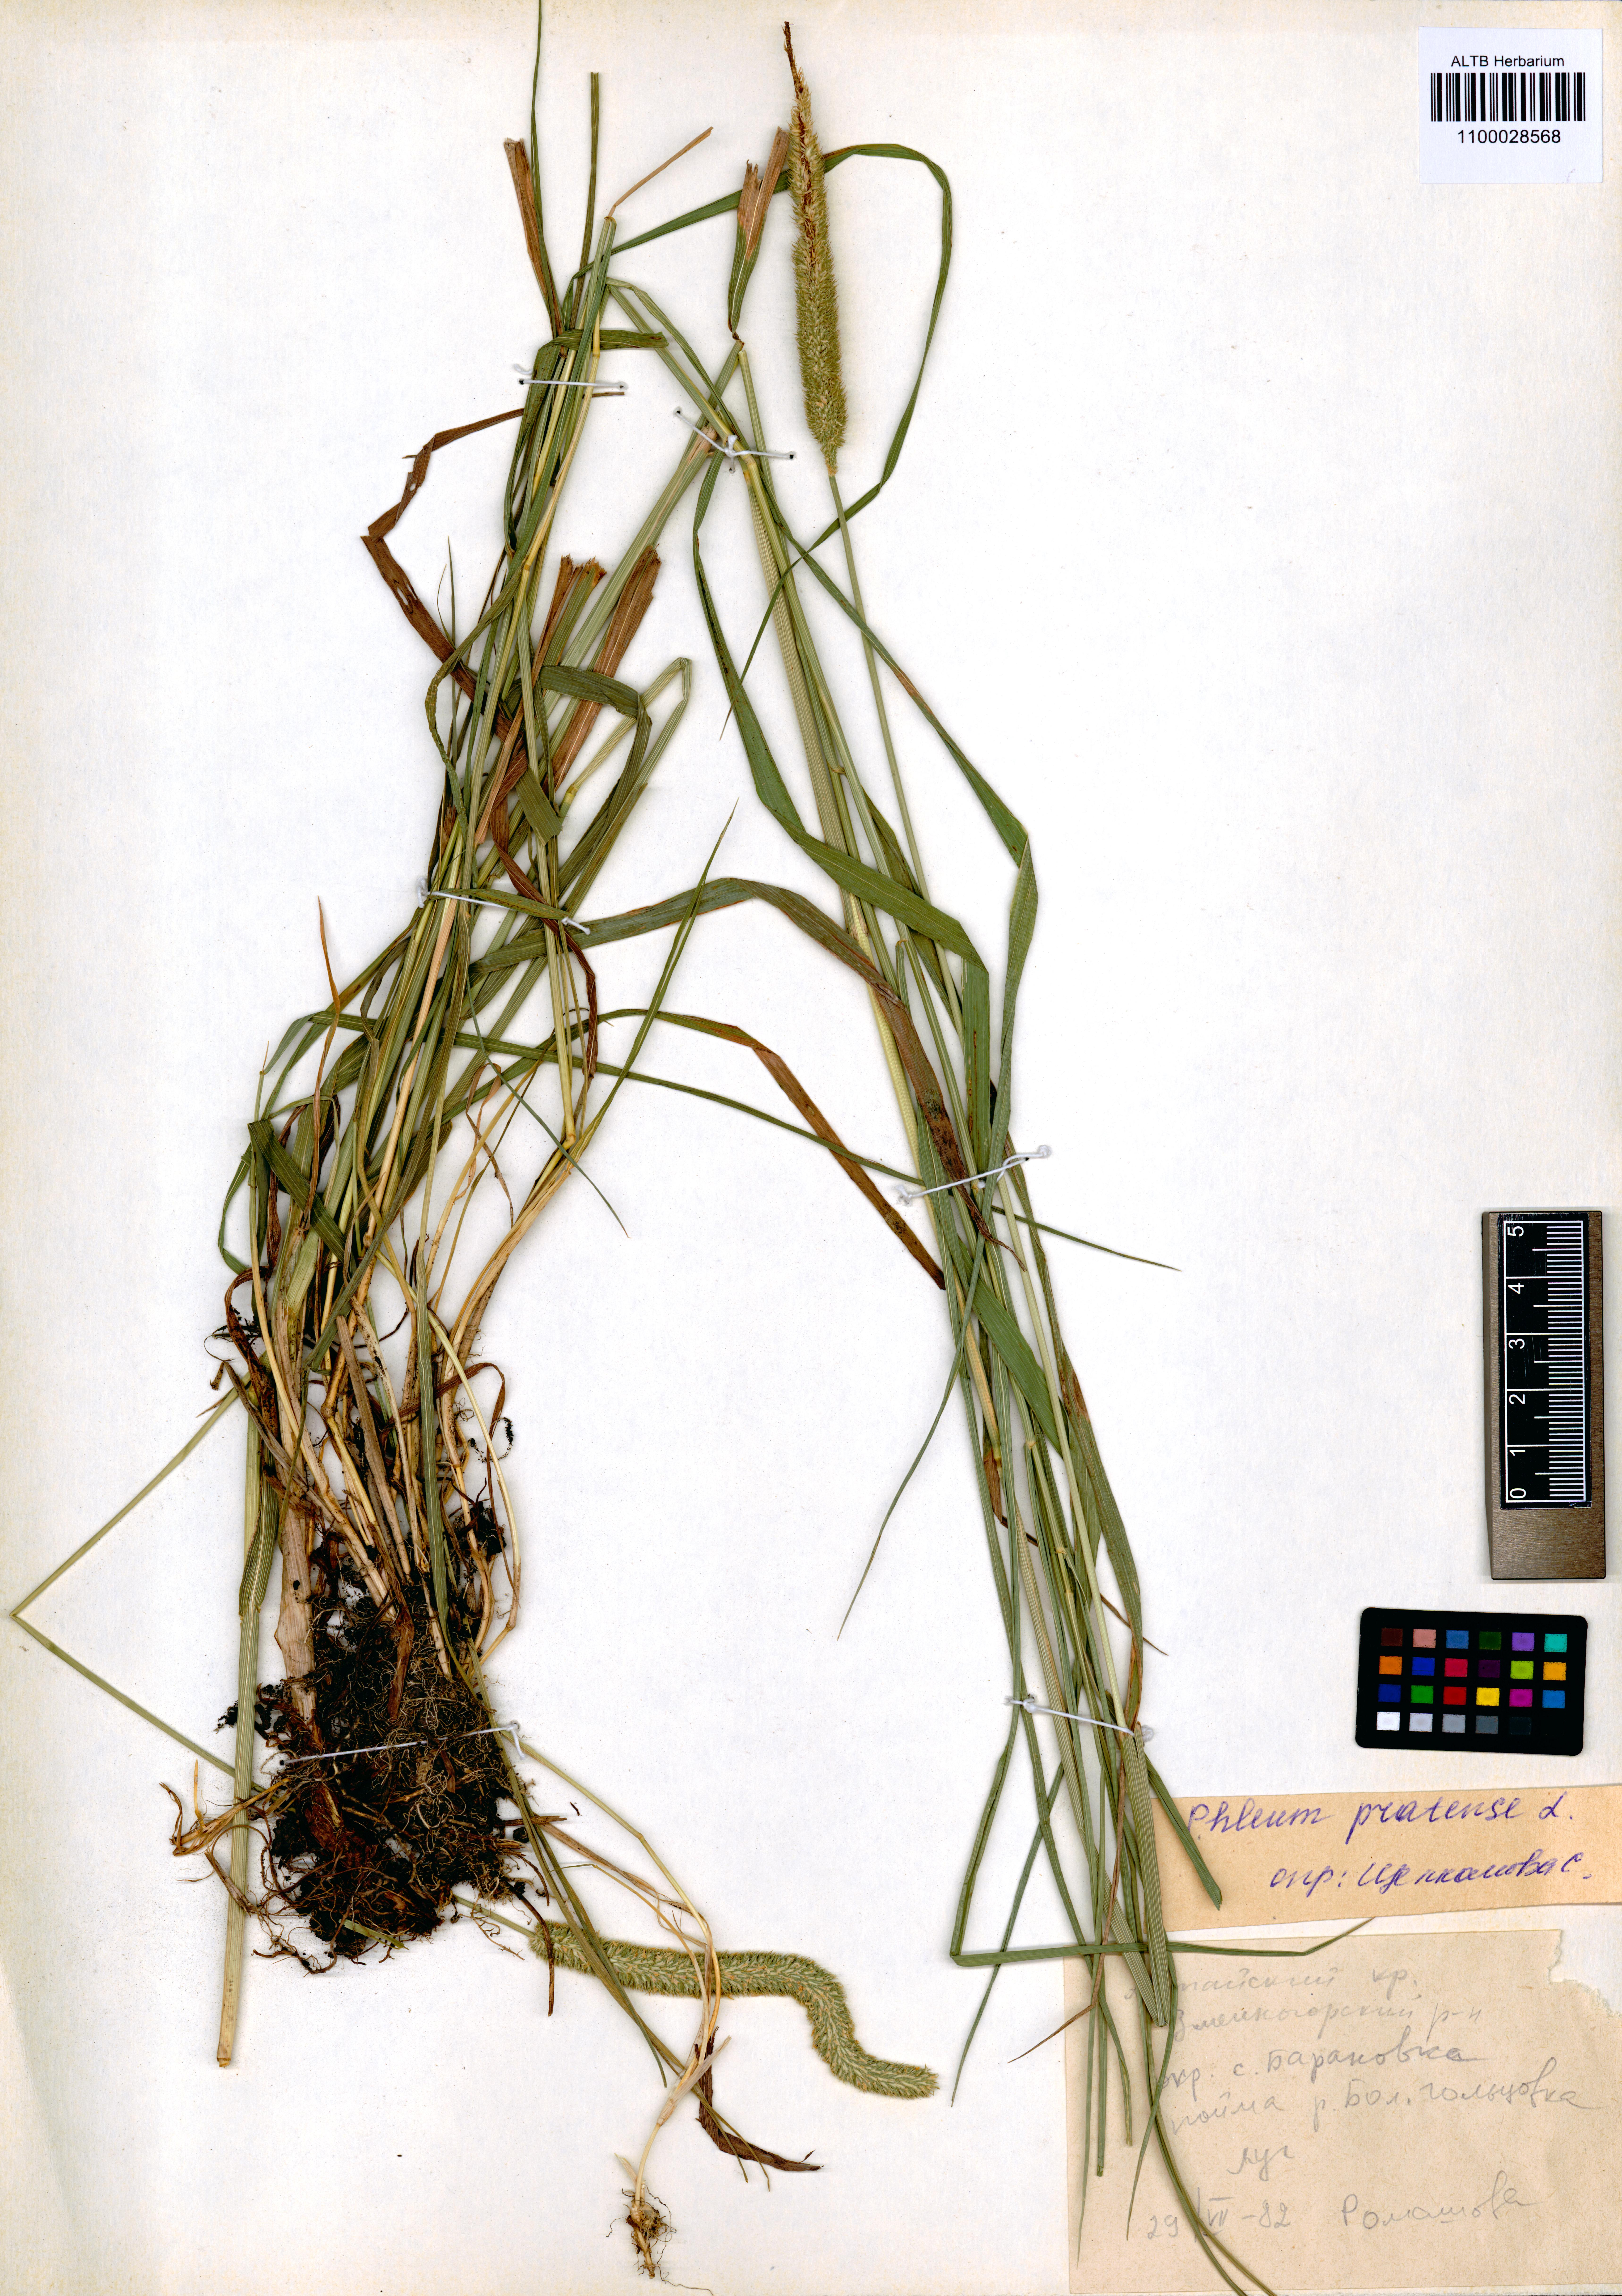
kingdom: Plantae
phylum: Tracheophyta
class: Liliopsida
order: Poales
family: Poaceae
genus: Phleum
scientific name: Phleum pratense
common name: Timothy grass
